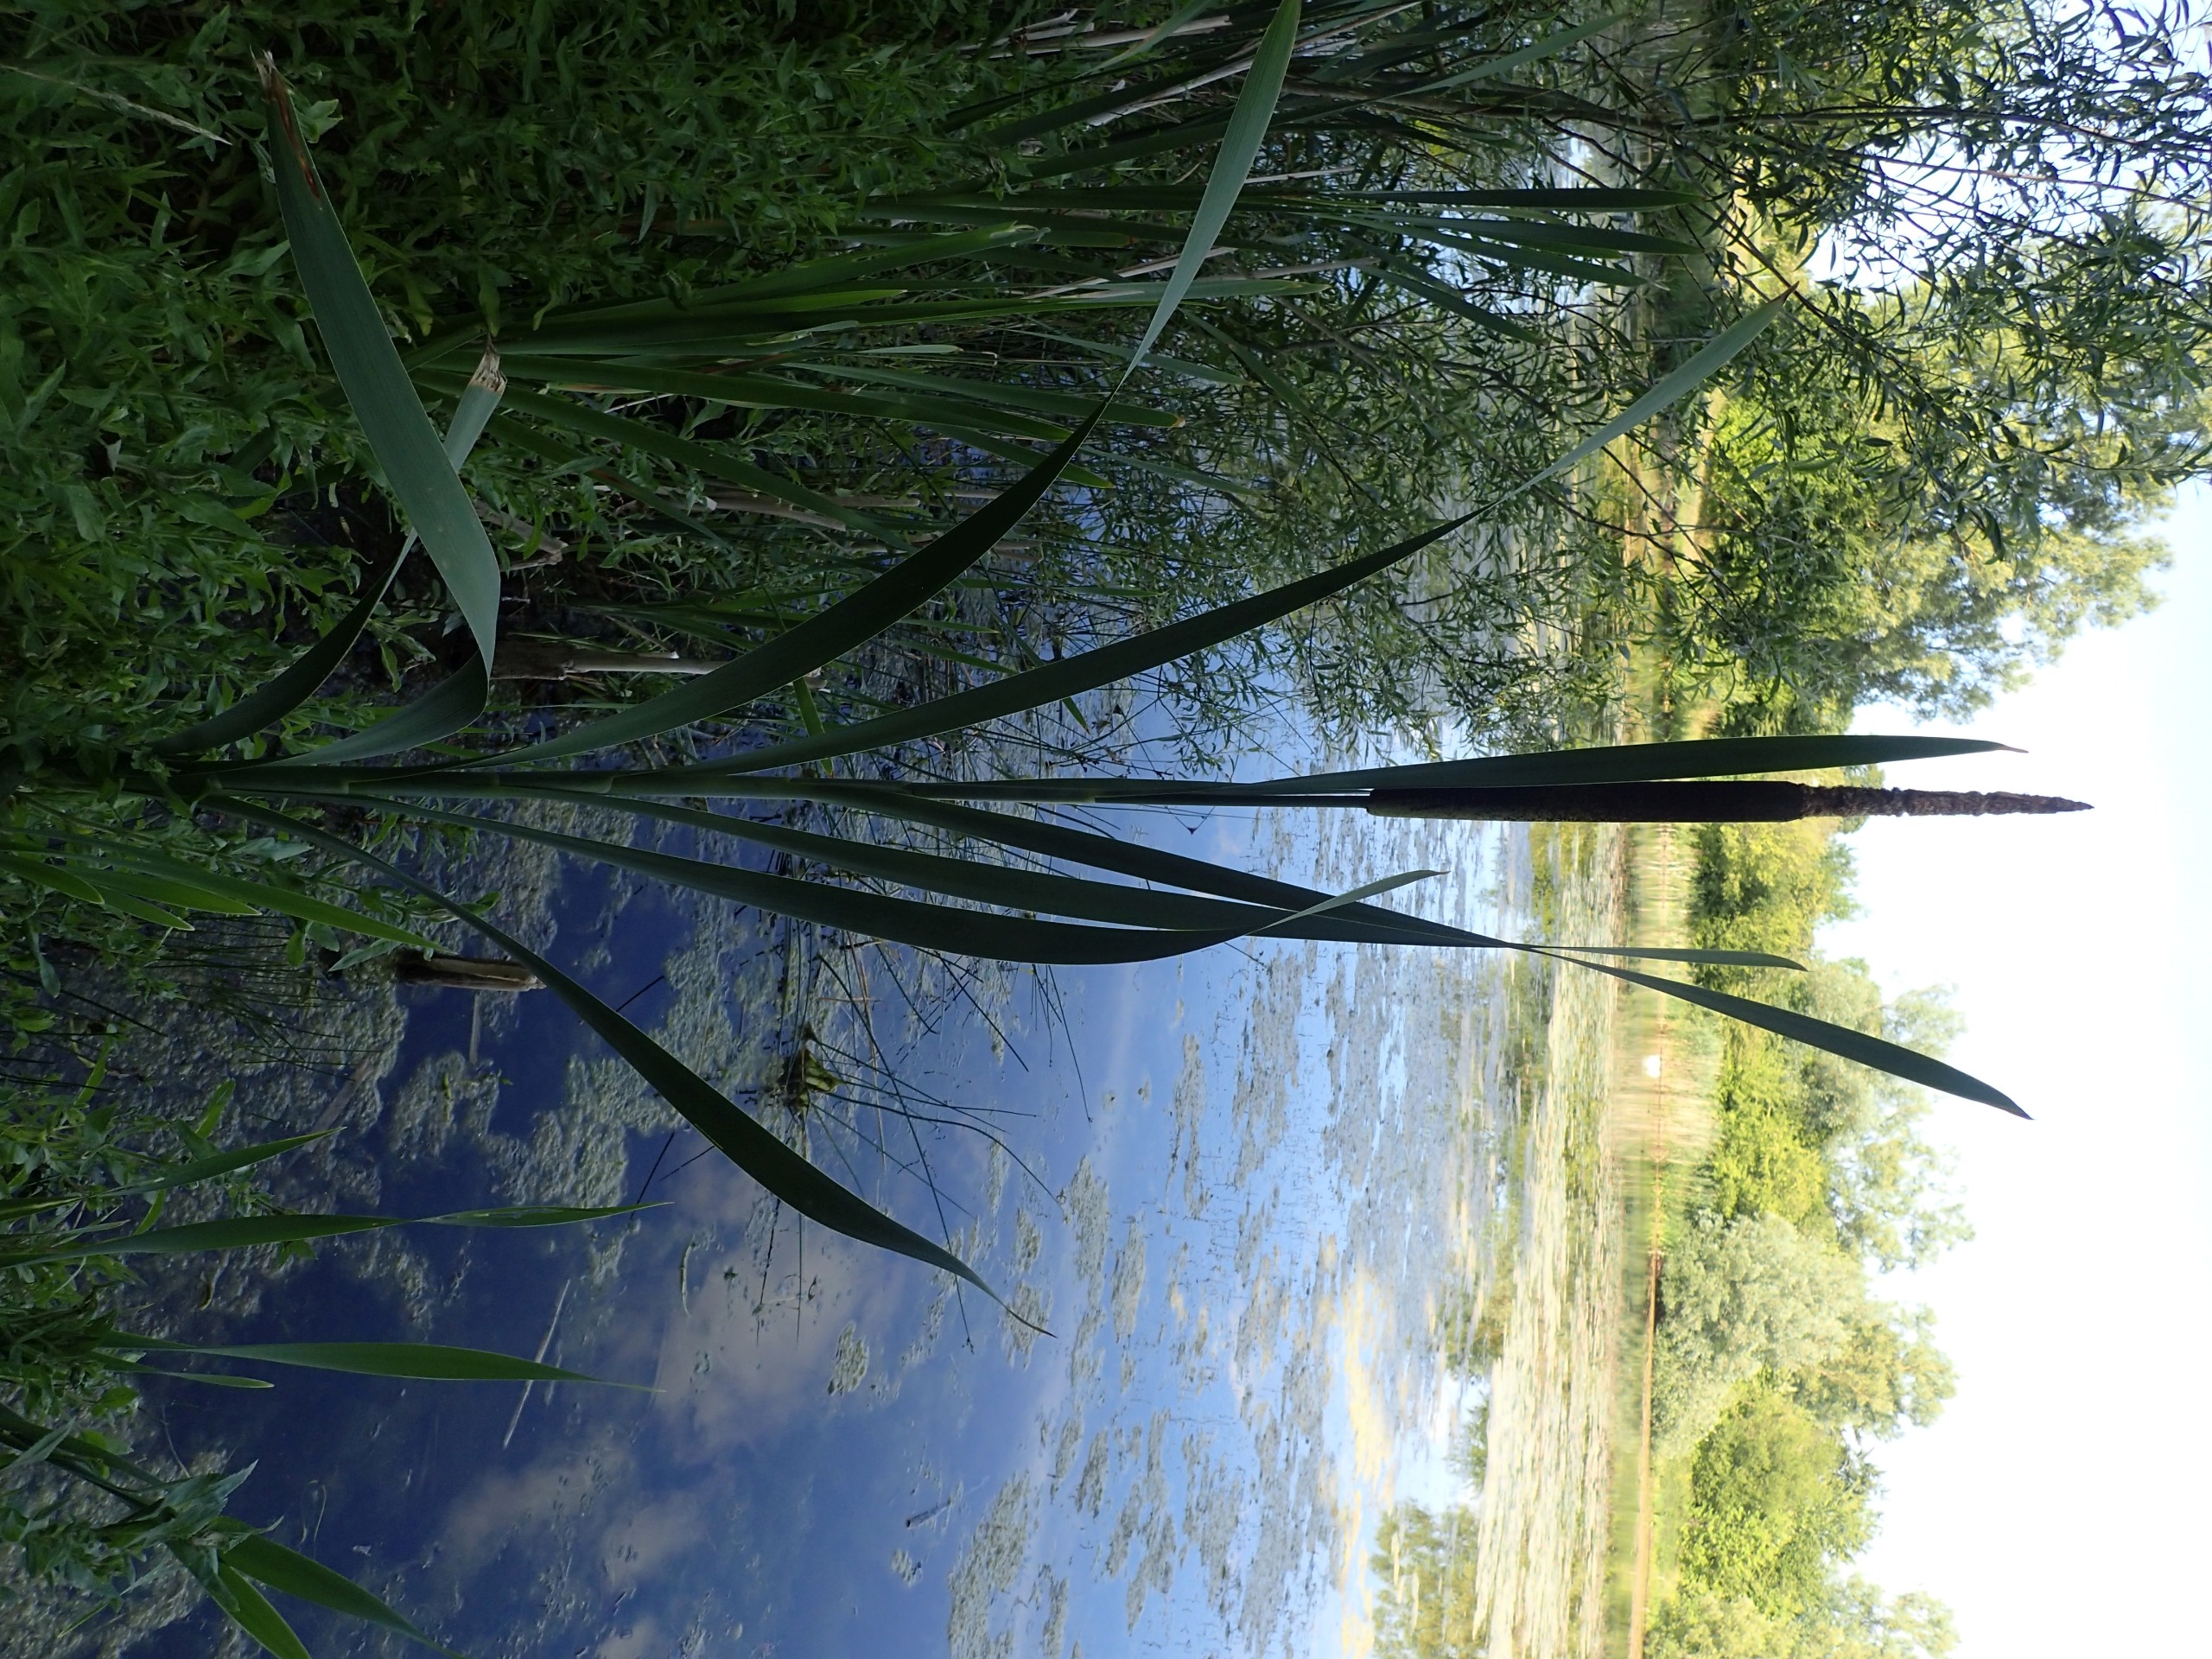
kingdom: Plantae
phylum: Tracheophyta
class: Liliopsida
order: Poales
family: Typhaceae
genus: Typha
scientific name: Typha latifolia
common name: Bredbladet dunhammer
